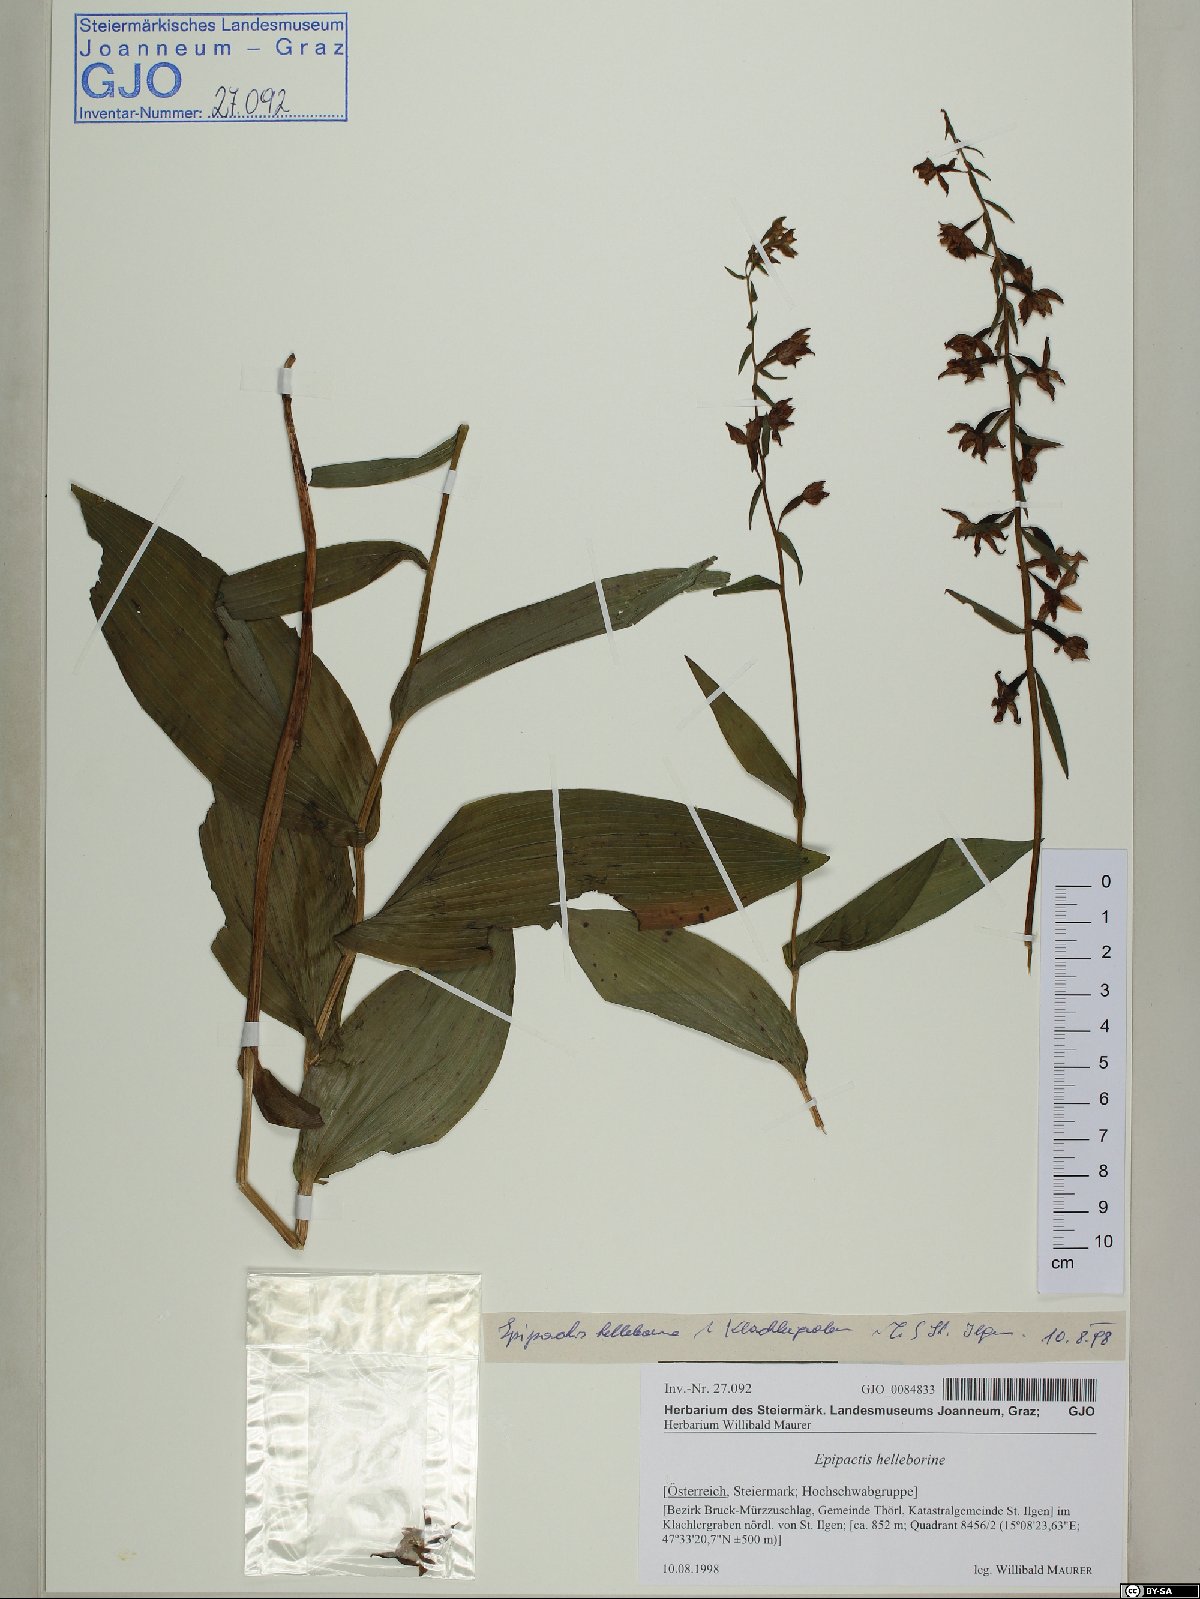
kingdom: Plantae
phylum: Tracheophyta
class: Liliopsida
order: Asparagales
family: Orchidaceae
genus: Epipactis
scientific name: Epipactis helleborine
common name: Broad-leaved helleborine
